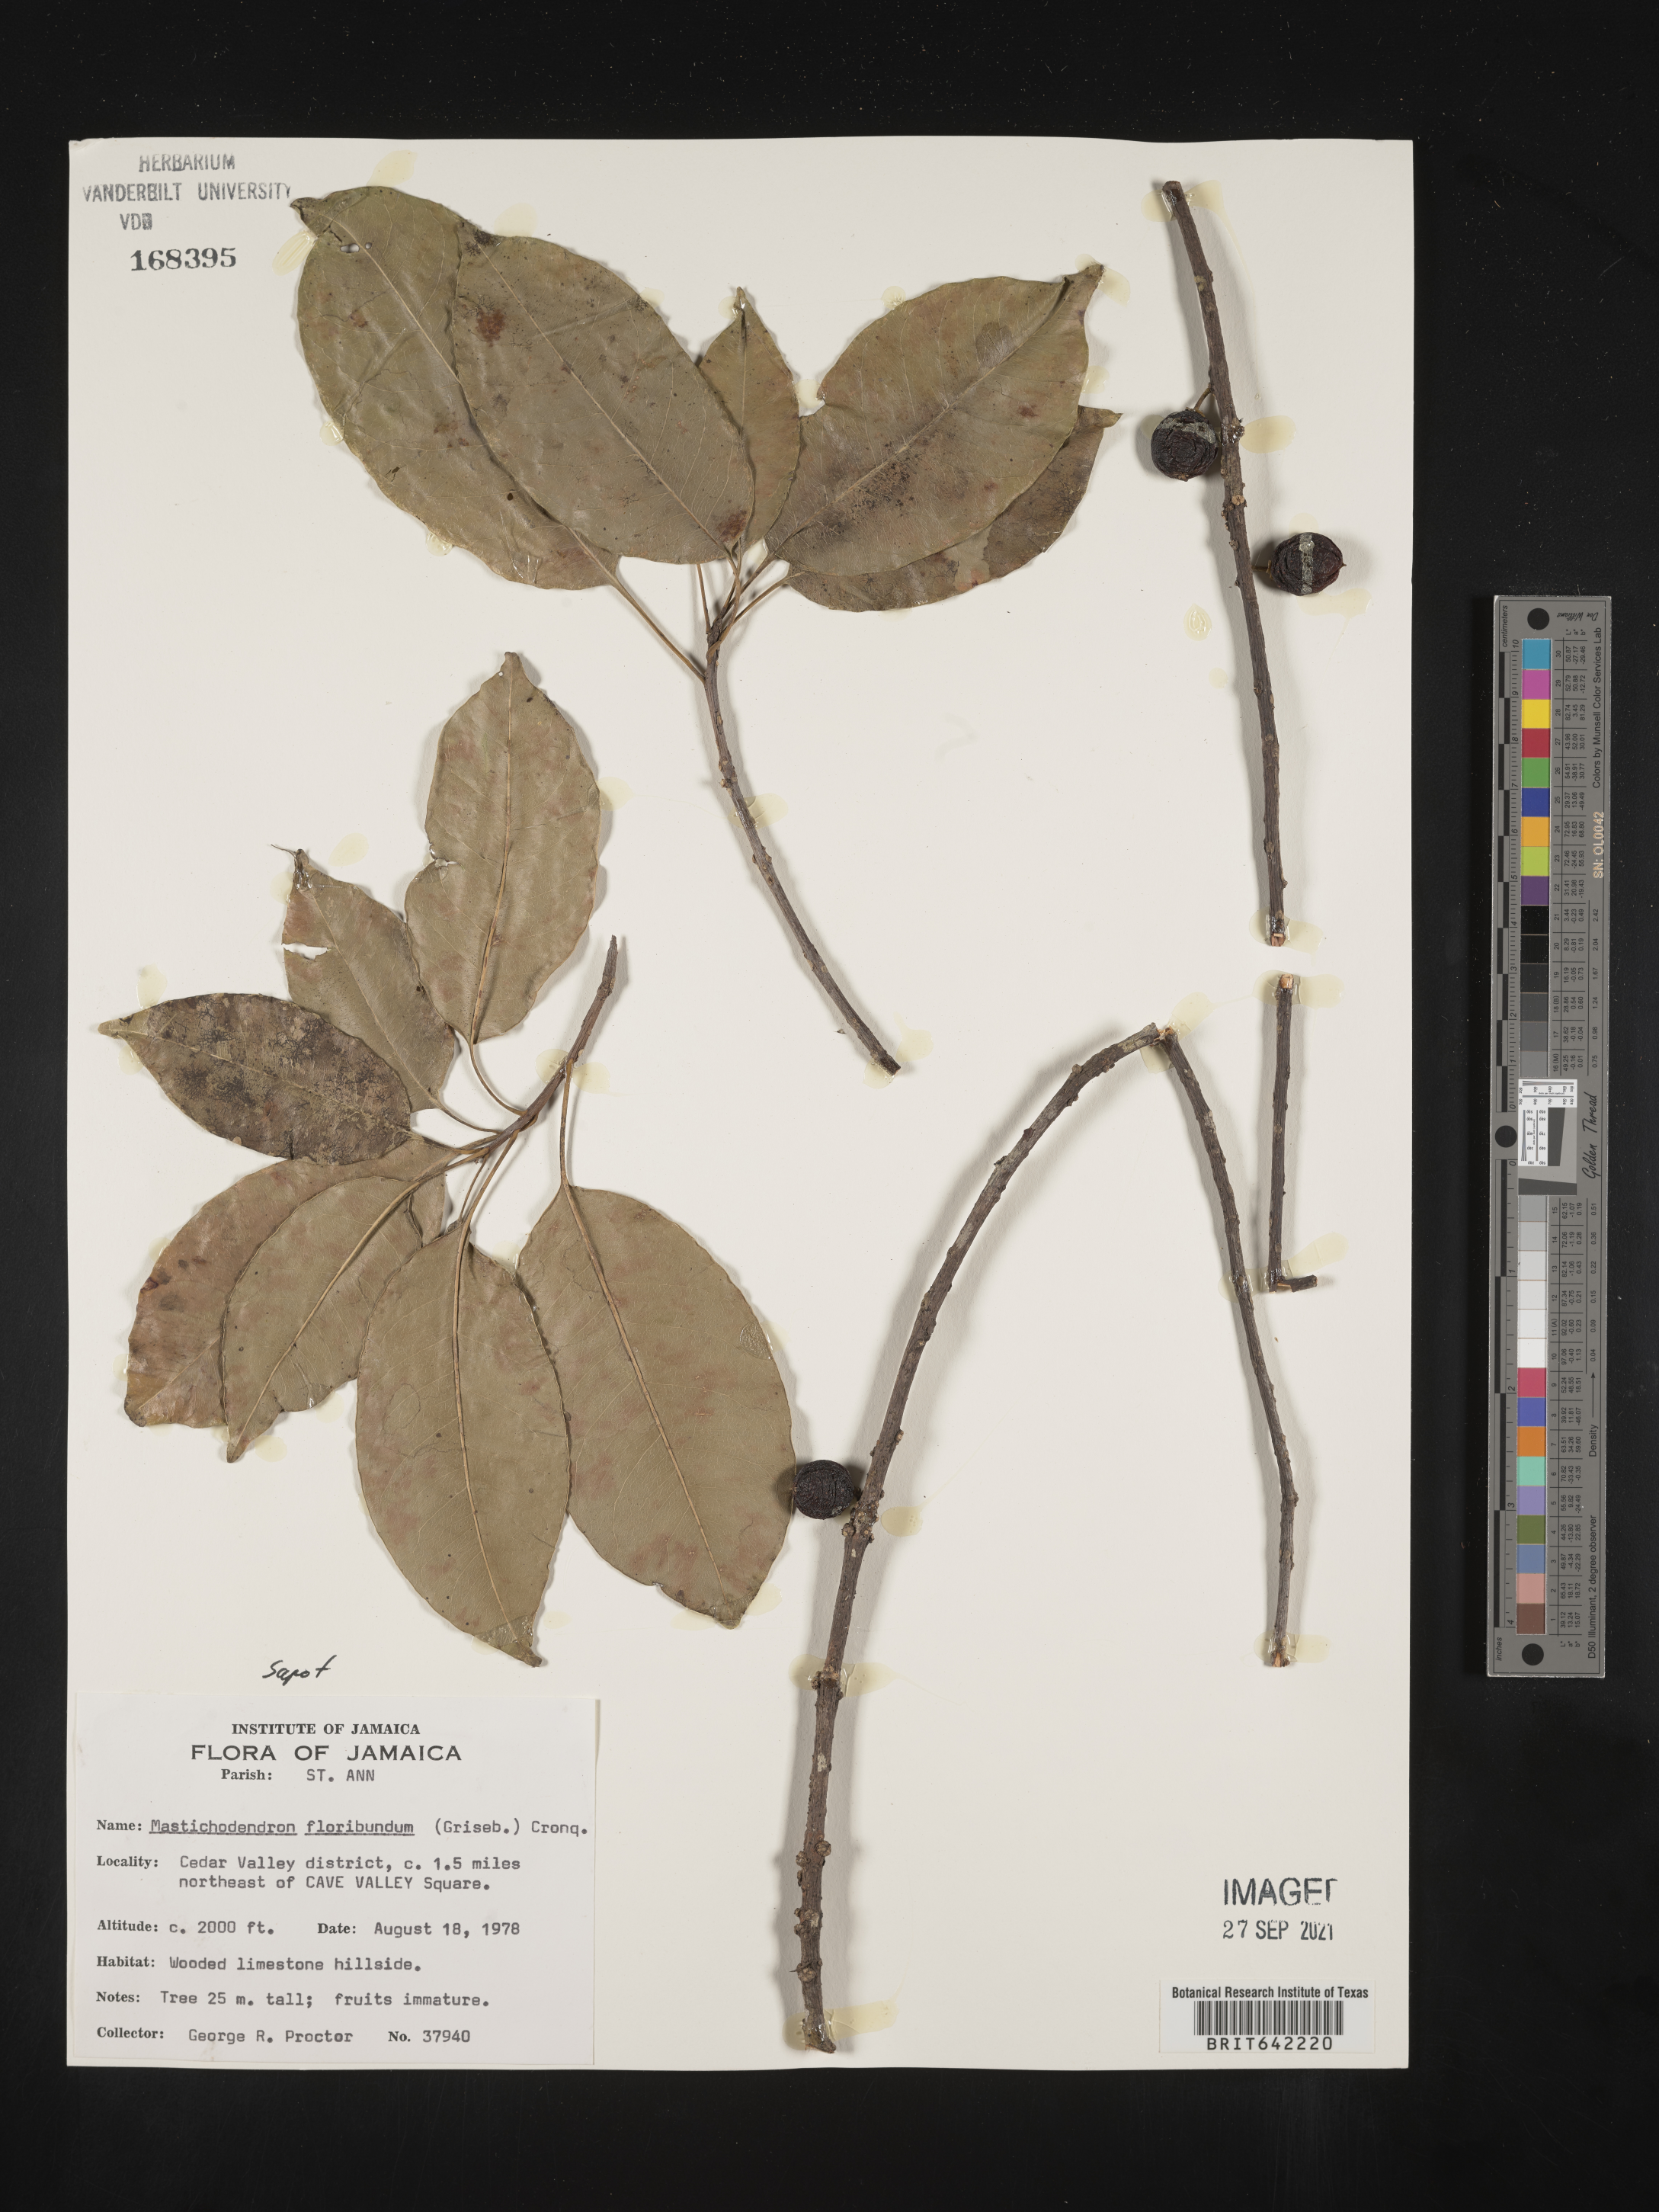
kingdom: Plantae
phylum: Tracheophyta
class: Magnoliopsida
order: Ericales
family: Sapotaceae
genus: Mastichodendron
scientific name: Mastichodendron
